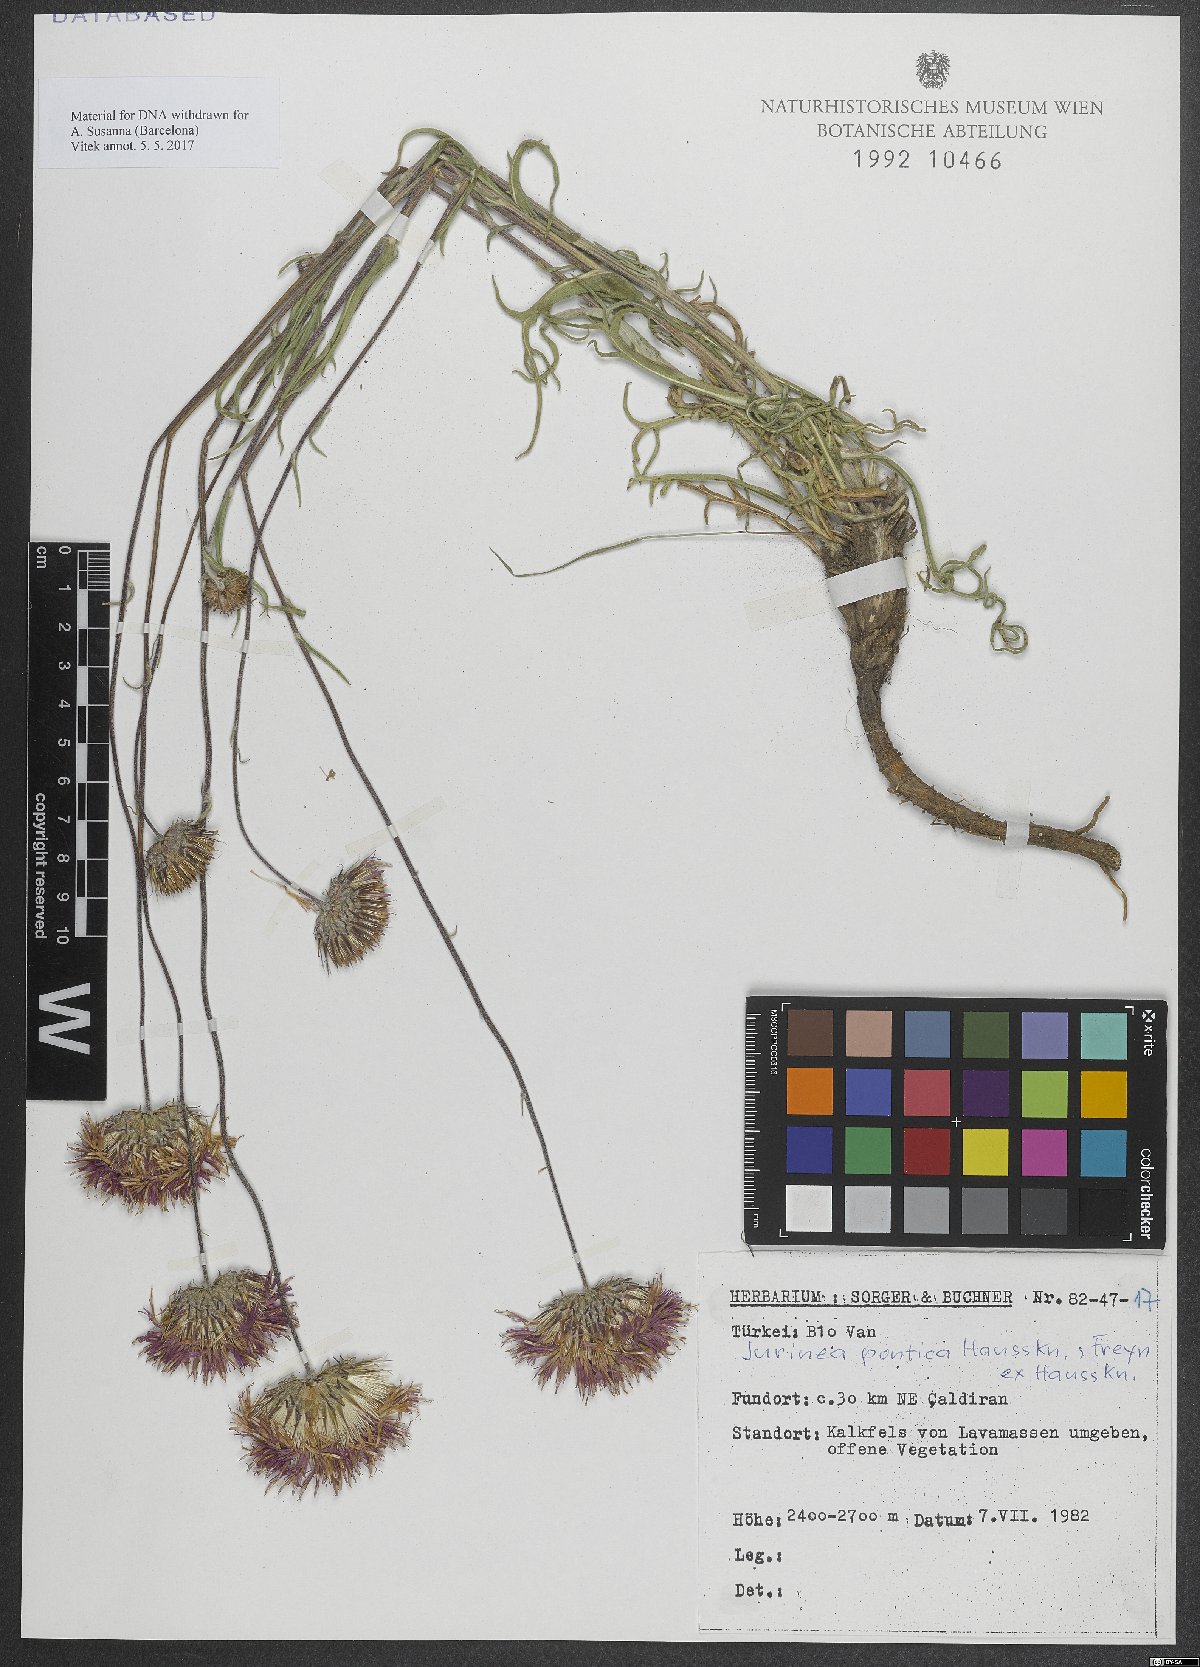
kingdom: Plantae
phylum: Tracheophyta
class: Magnoliopsida
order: Asterales
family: Asteraceae
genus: Jurinea
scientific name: Jurinea pontica
